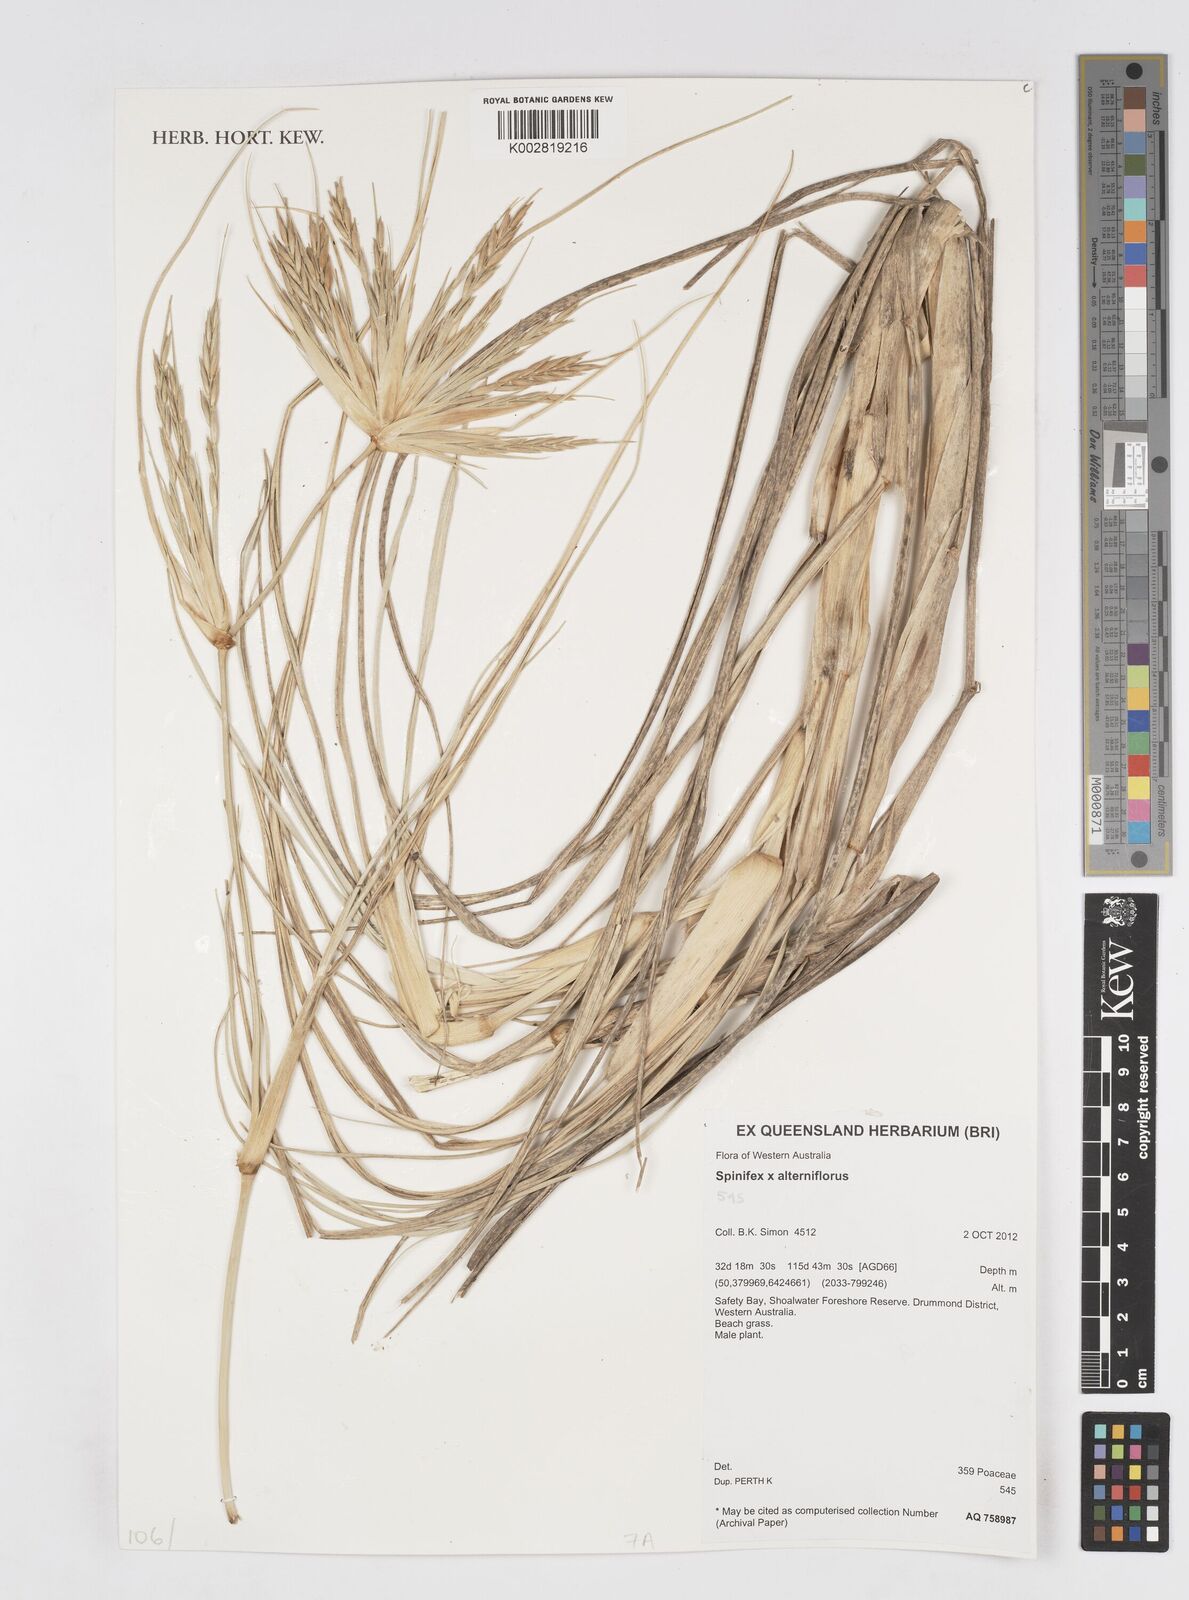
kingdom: Plantae
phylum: Tracheophyta
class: Liliopsida
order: Poales
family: Poaceae
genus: Spinifex
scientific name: Spinifex alterniflorus
